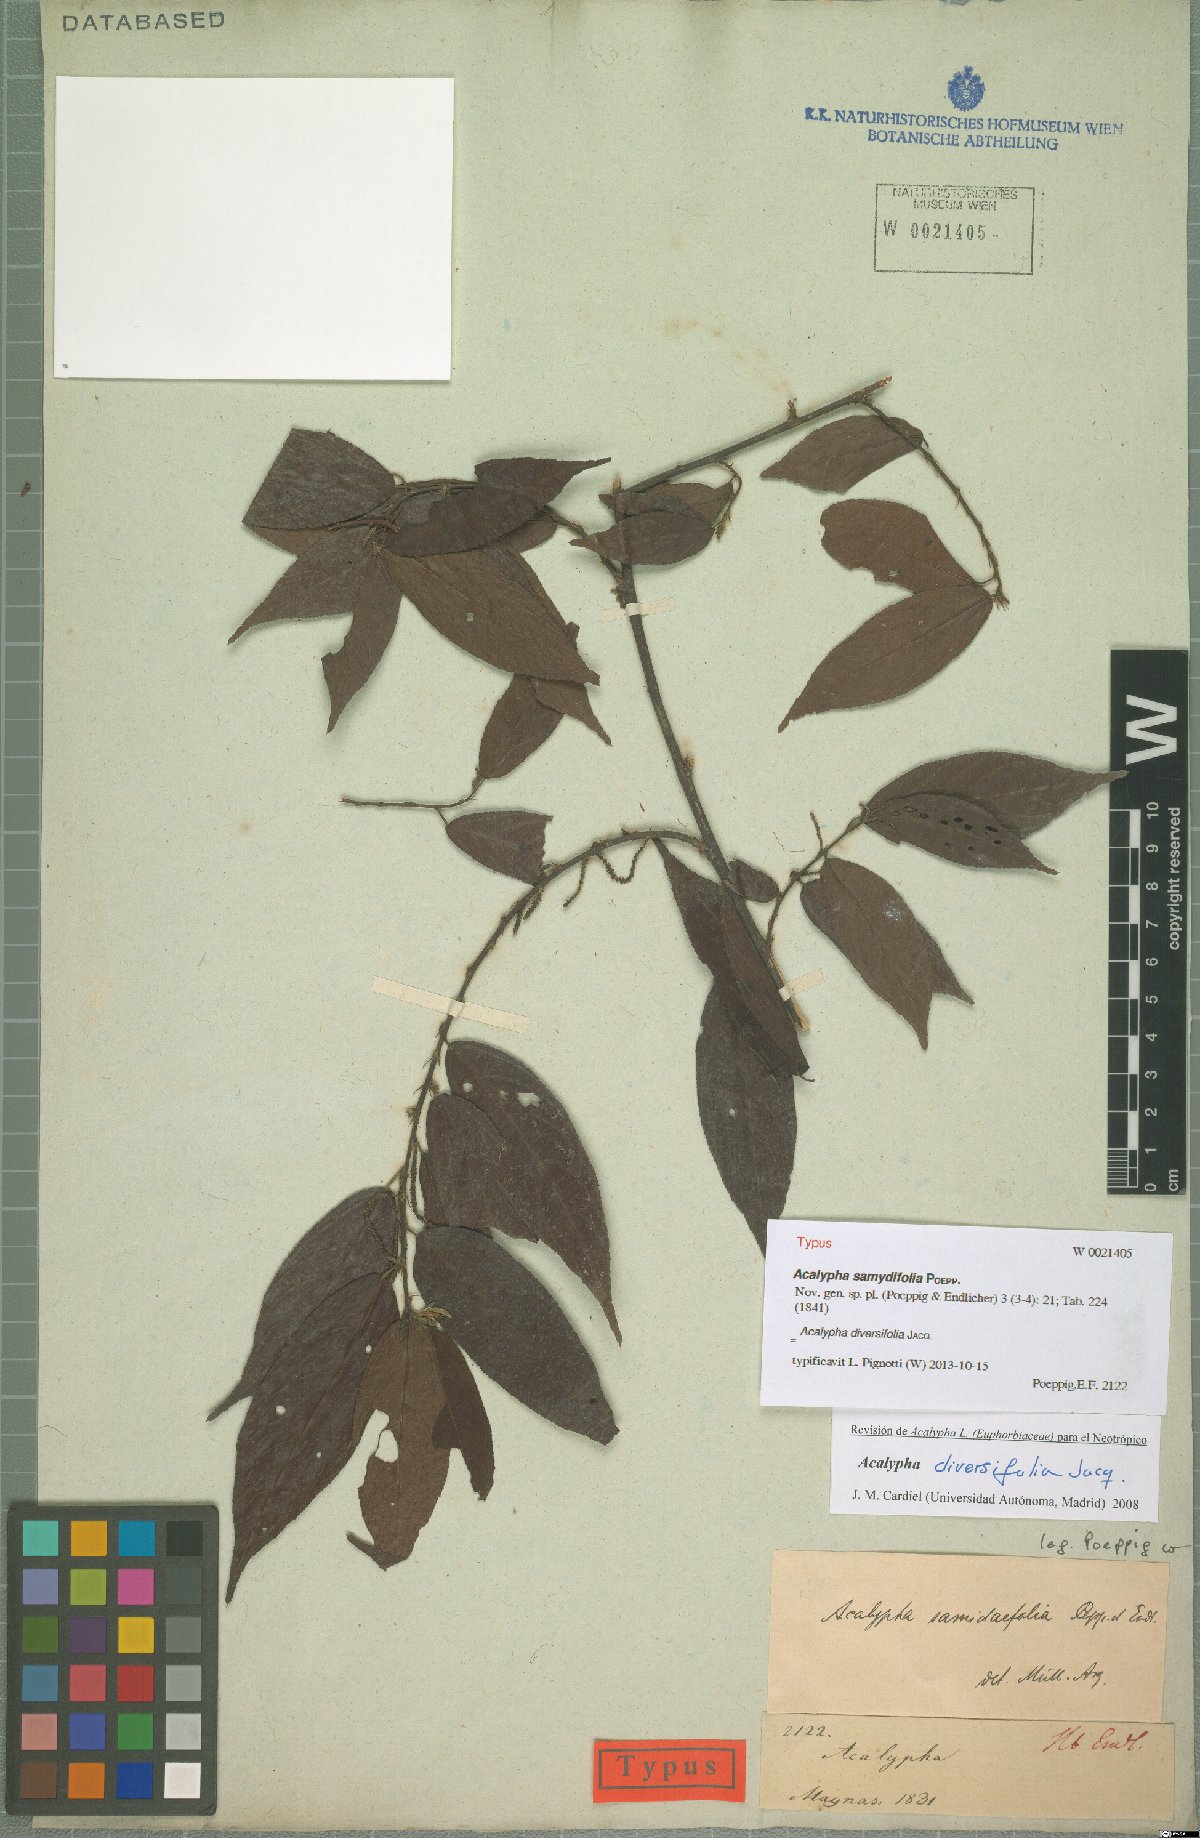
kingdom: Plantae
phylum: Tracheophyta
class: Magnoliopsida
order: Malpighiales
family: Euphorbiaceae
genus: Acalypha
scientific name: Acalypha diversifolia
